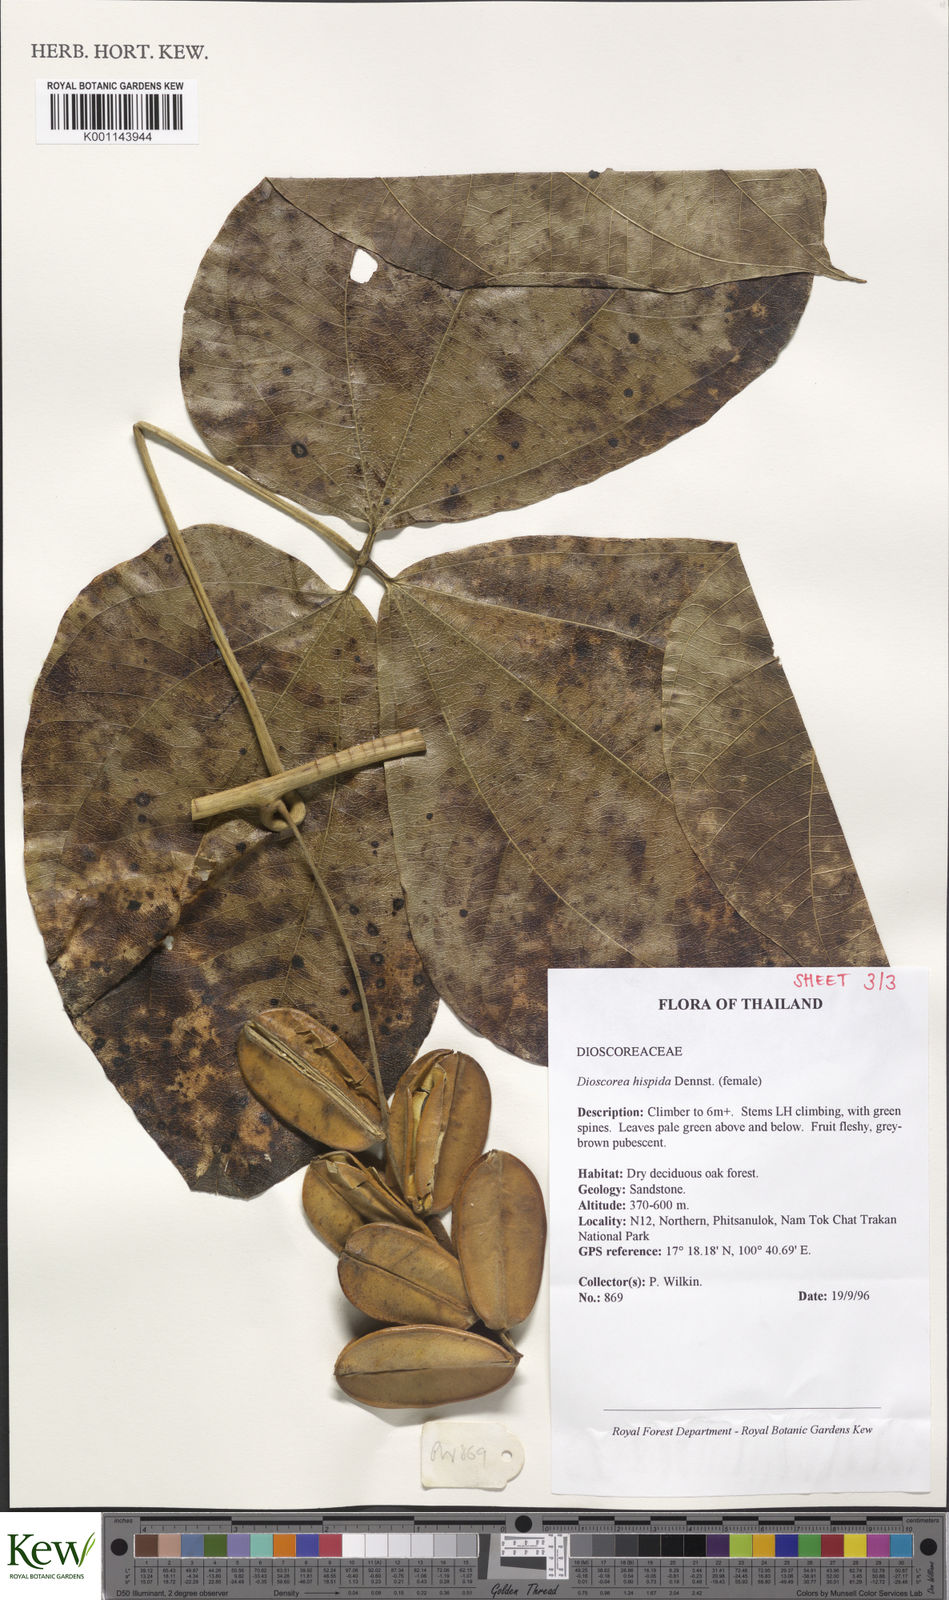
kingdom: Plantae
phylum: Tracheophyta
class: Liliopsida
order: Dioscoreales
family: Dioscoreaceae
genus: Dioscorea
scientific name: Dioscorea hispida
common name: Asiatic bitter yam
